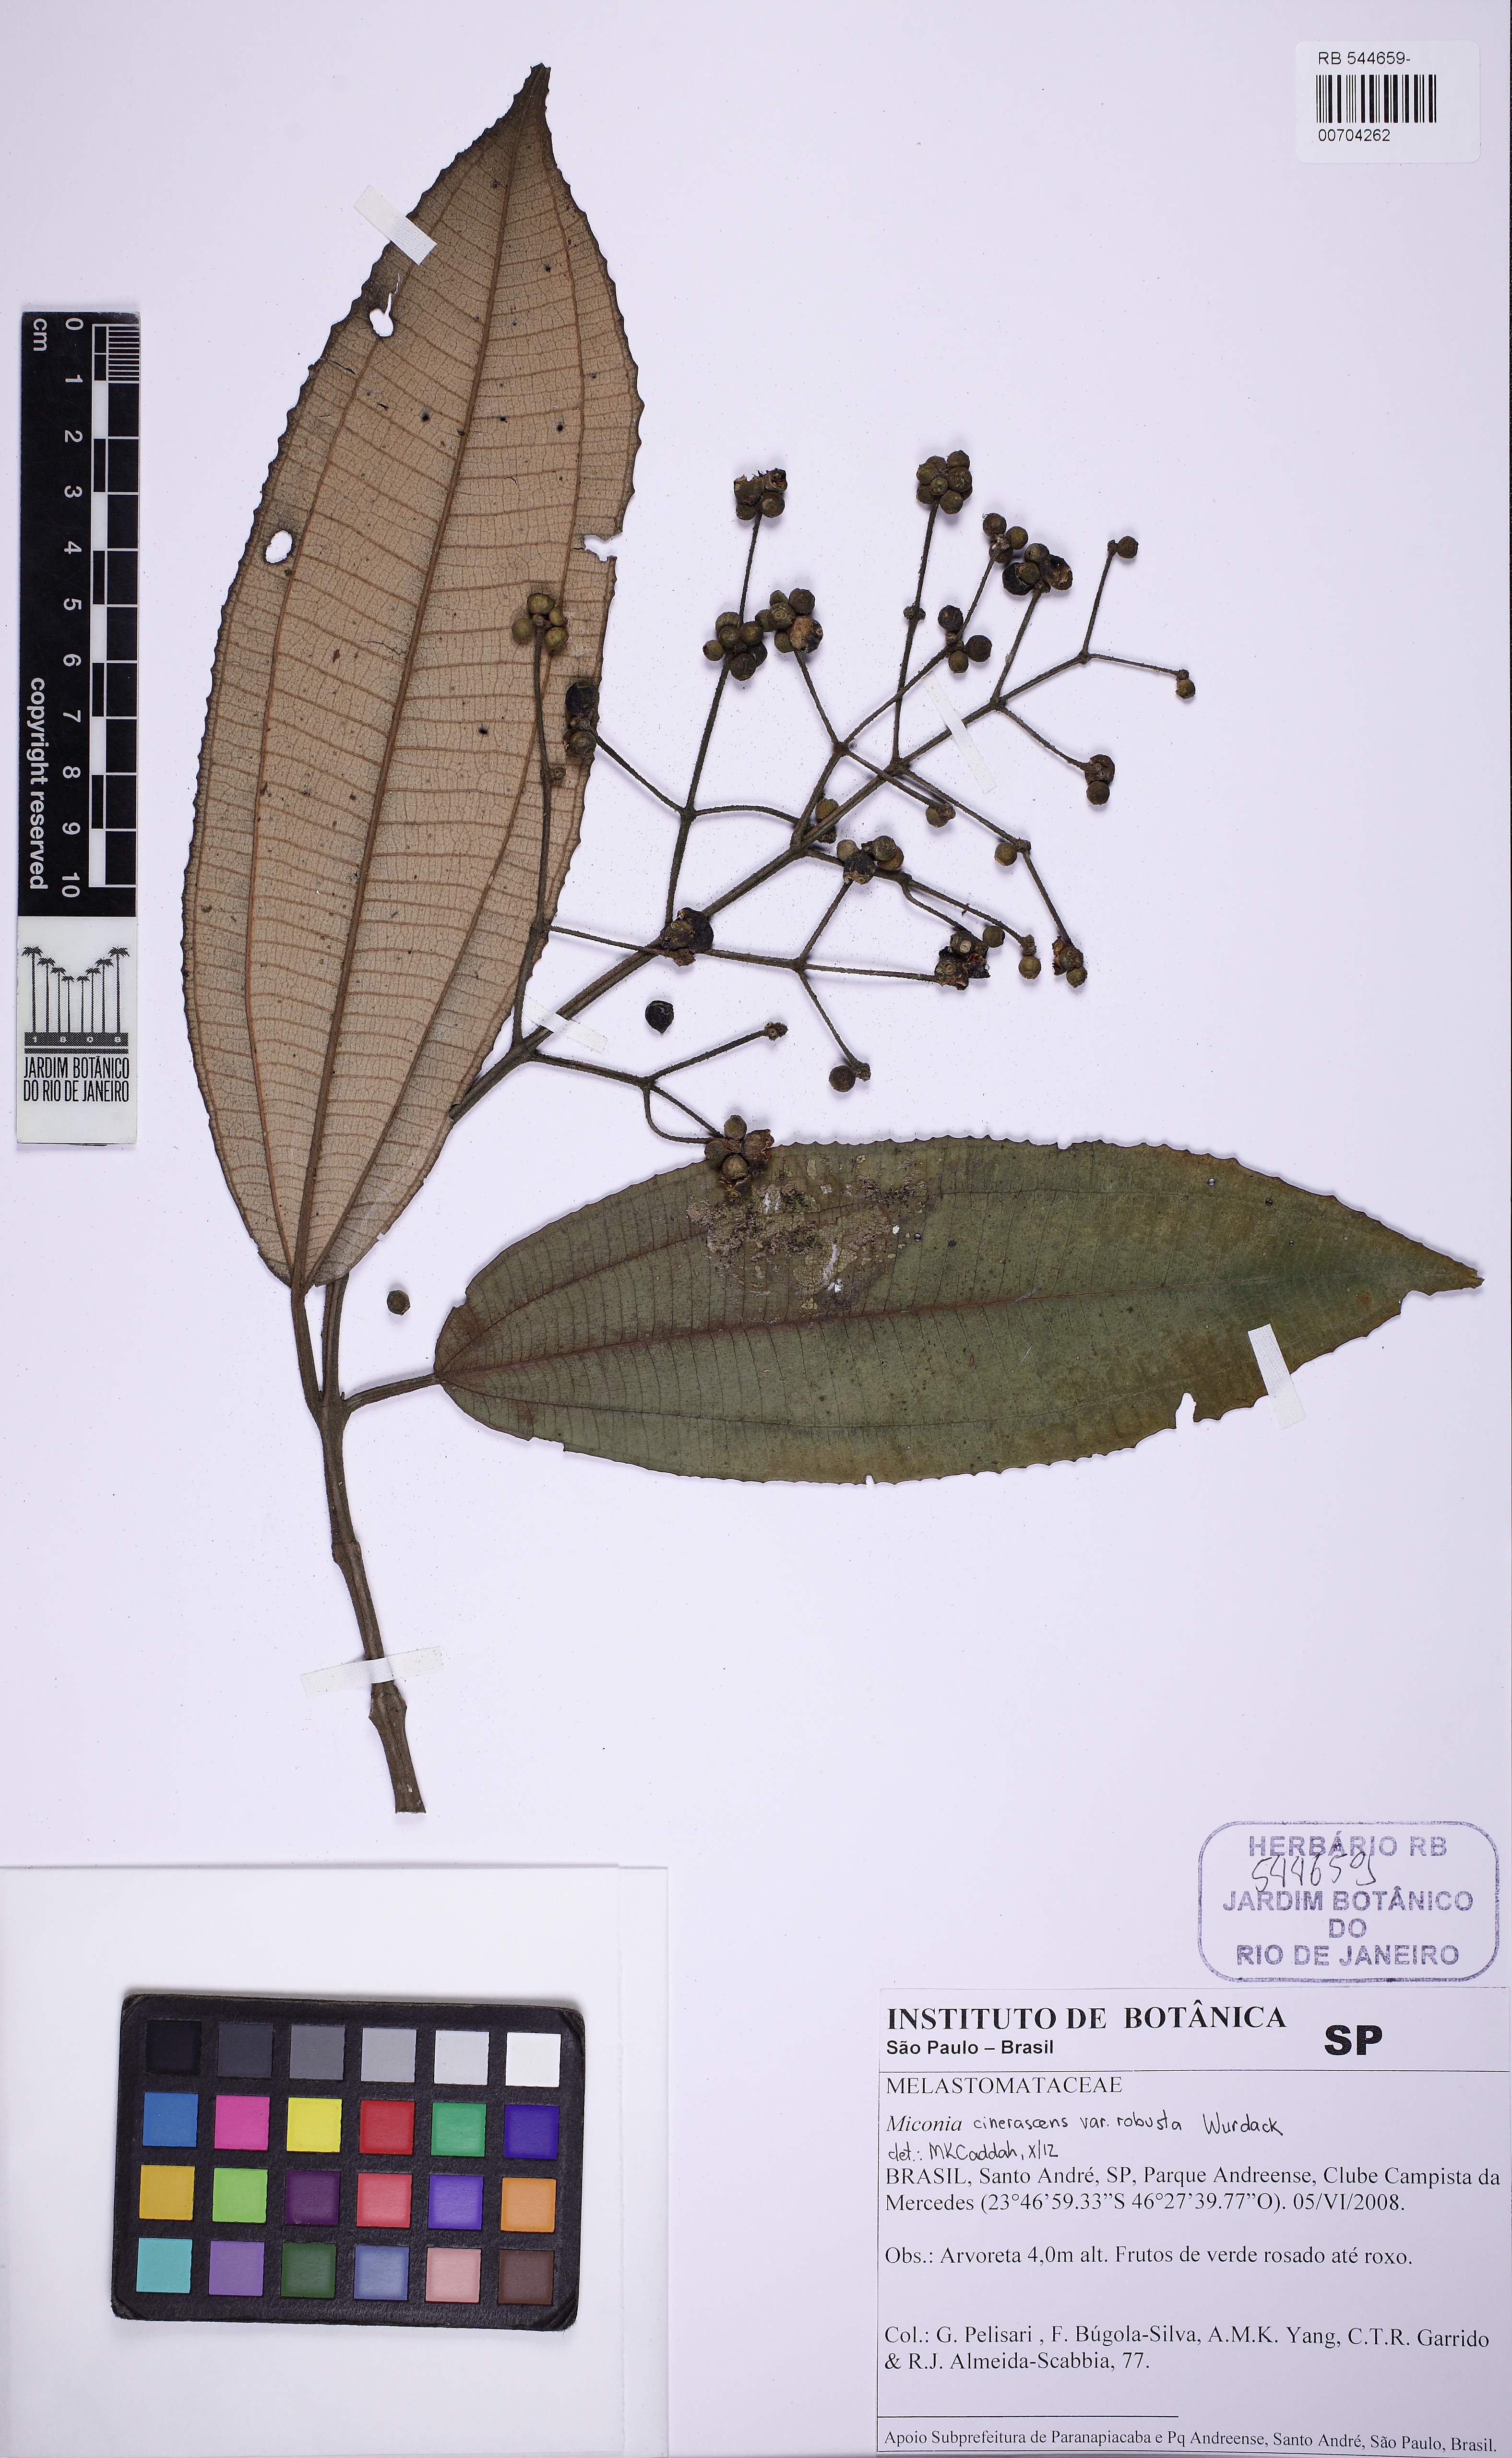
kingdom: Plantae
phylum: Tracheophyta
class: Magnoliopsida
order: Myrtales
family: Melastomataceae
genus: Miconia
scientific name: Miconia cinerascens
